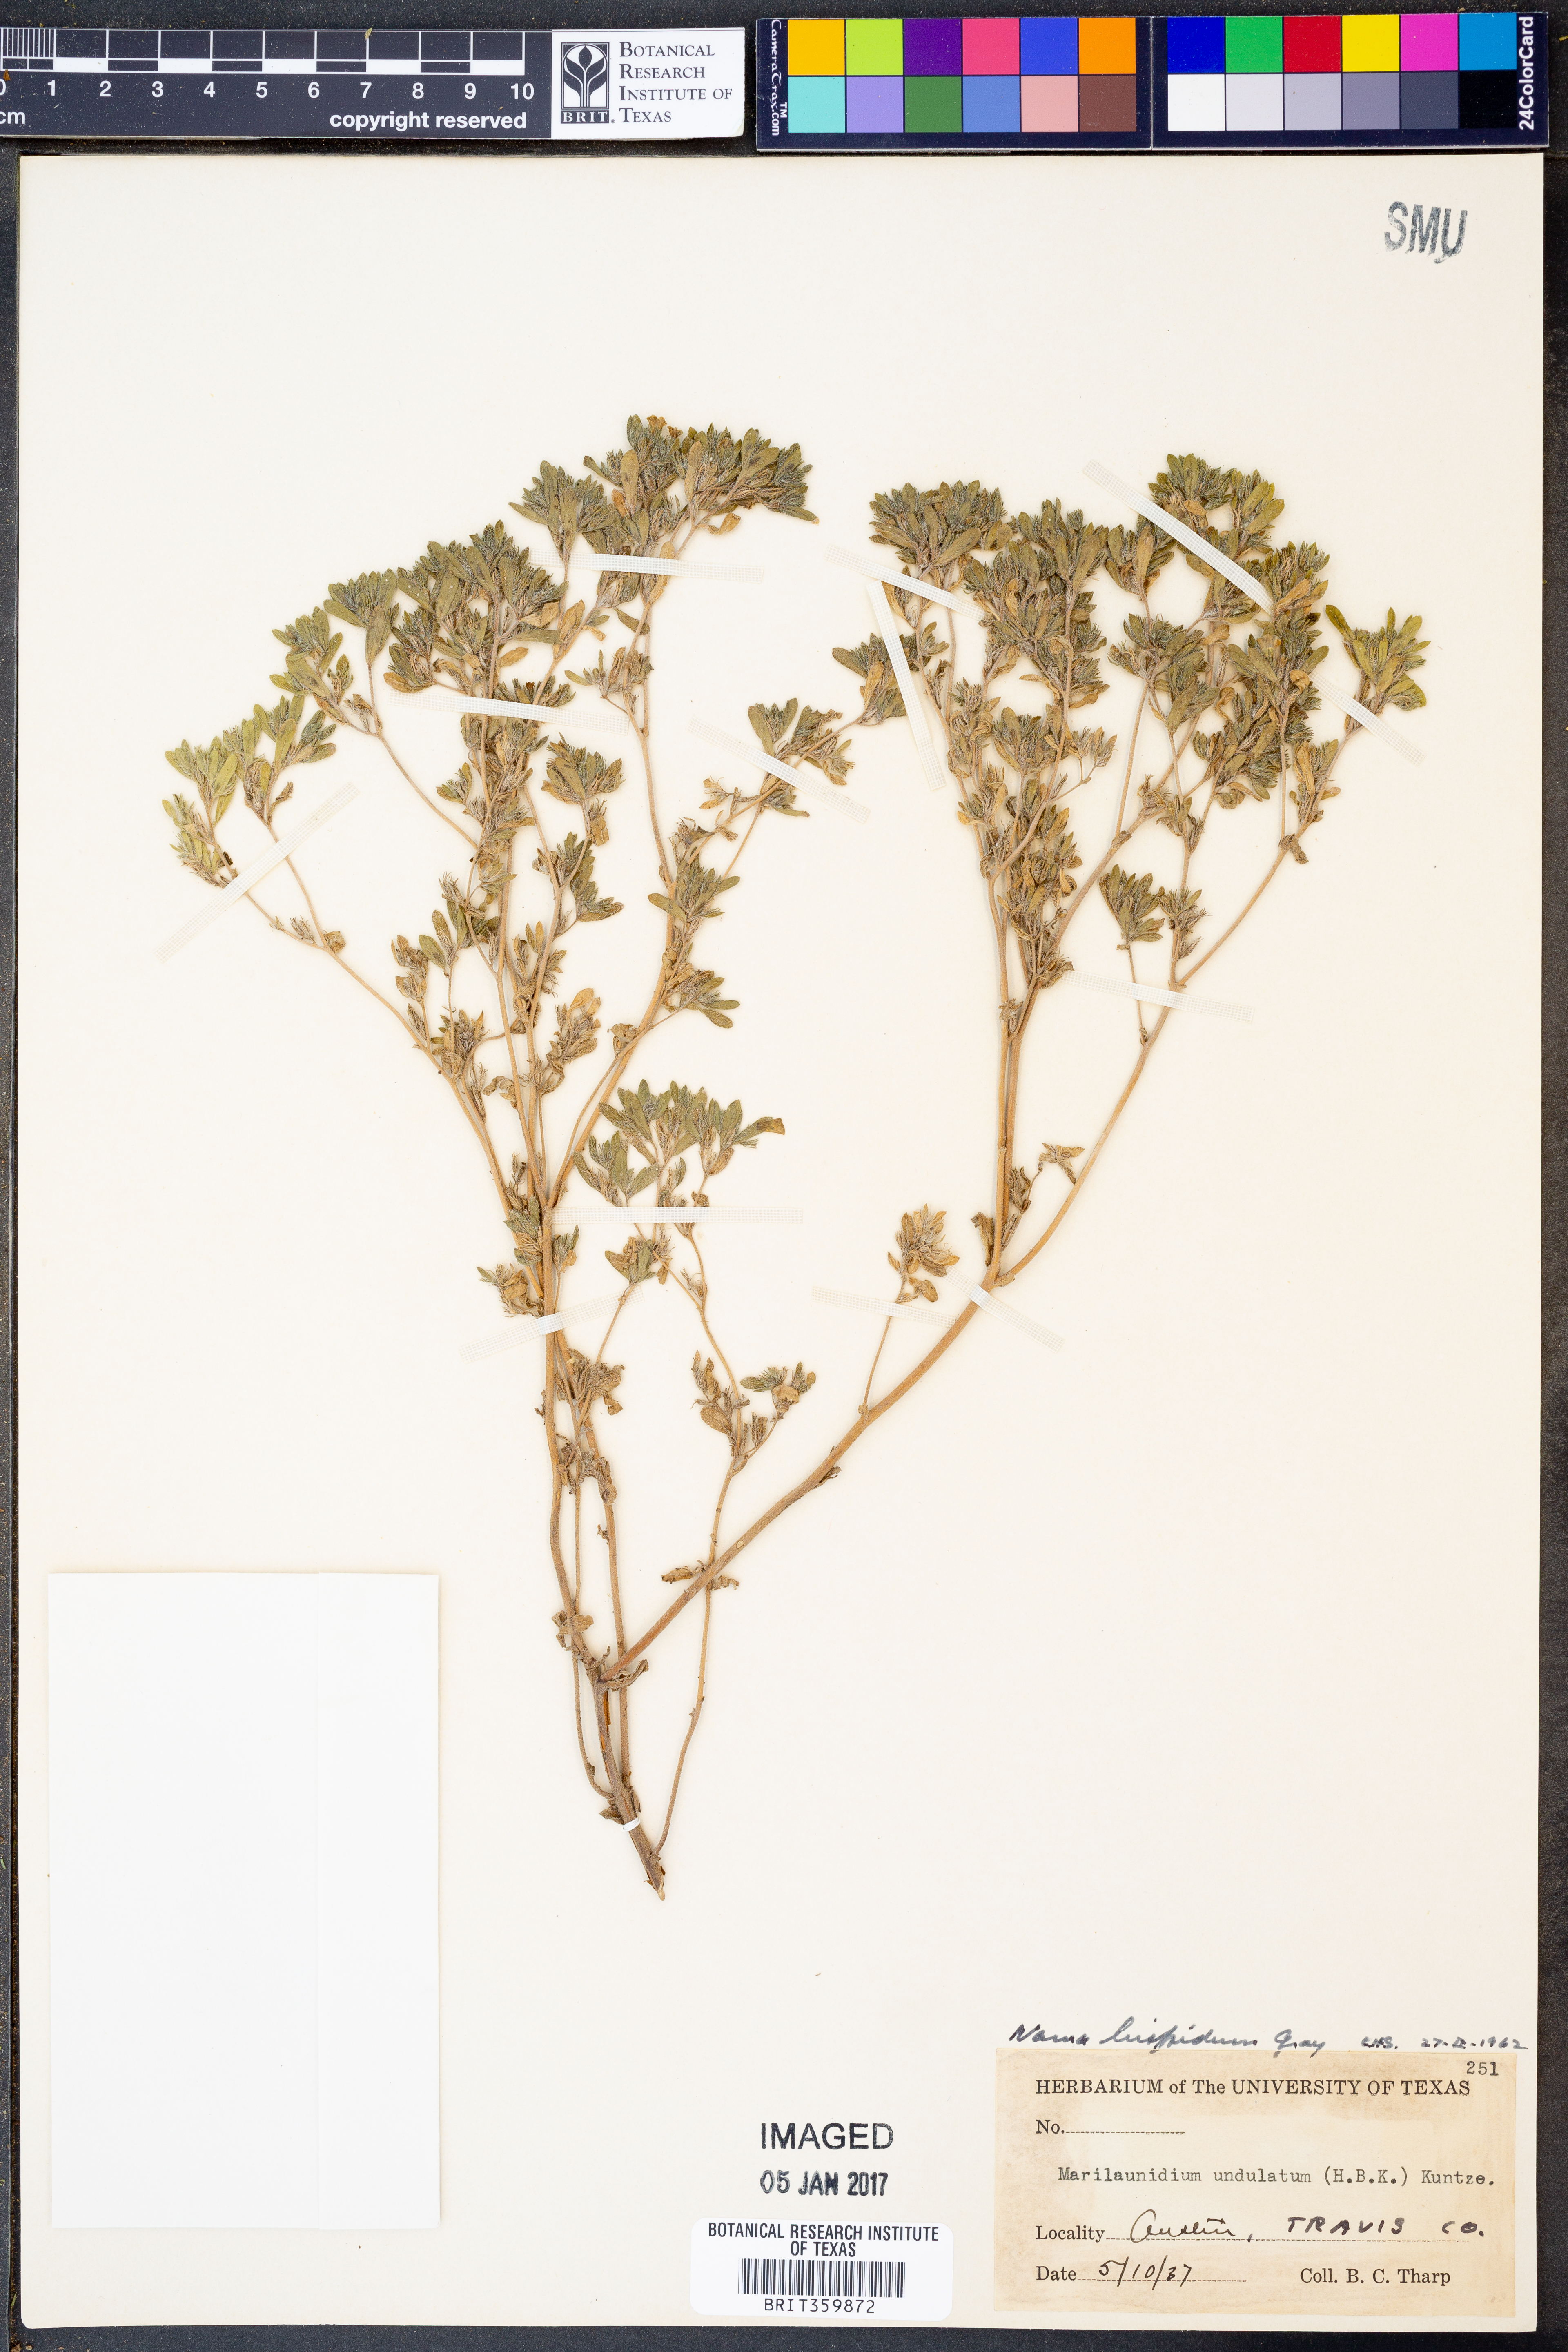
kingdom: Plantae
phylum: Tracheophyta
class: Magnoliopsida
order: Boraginales
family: Namaceae
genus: Nama
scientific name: Nama hispida
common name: Bristly nama
